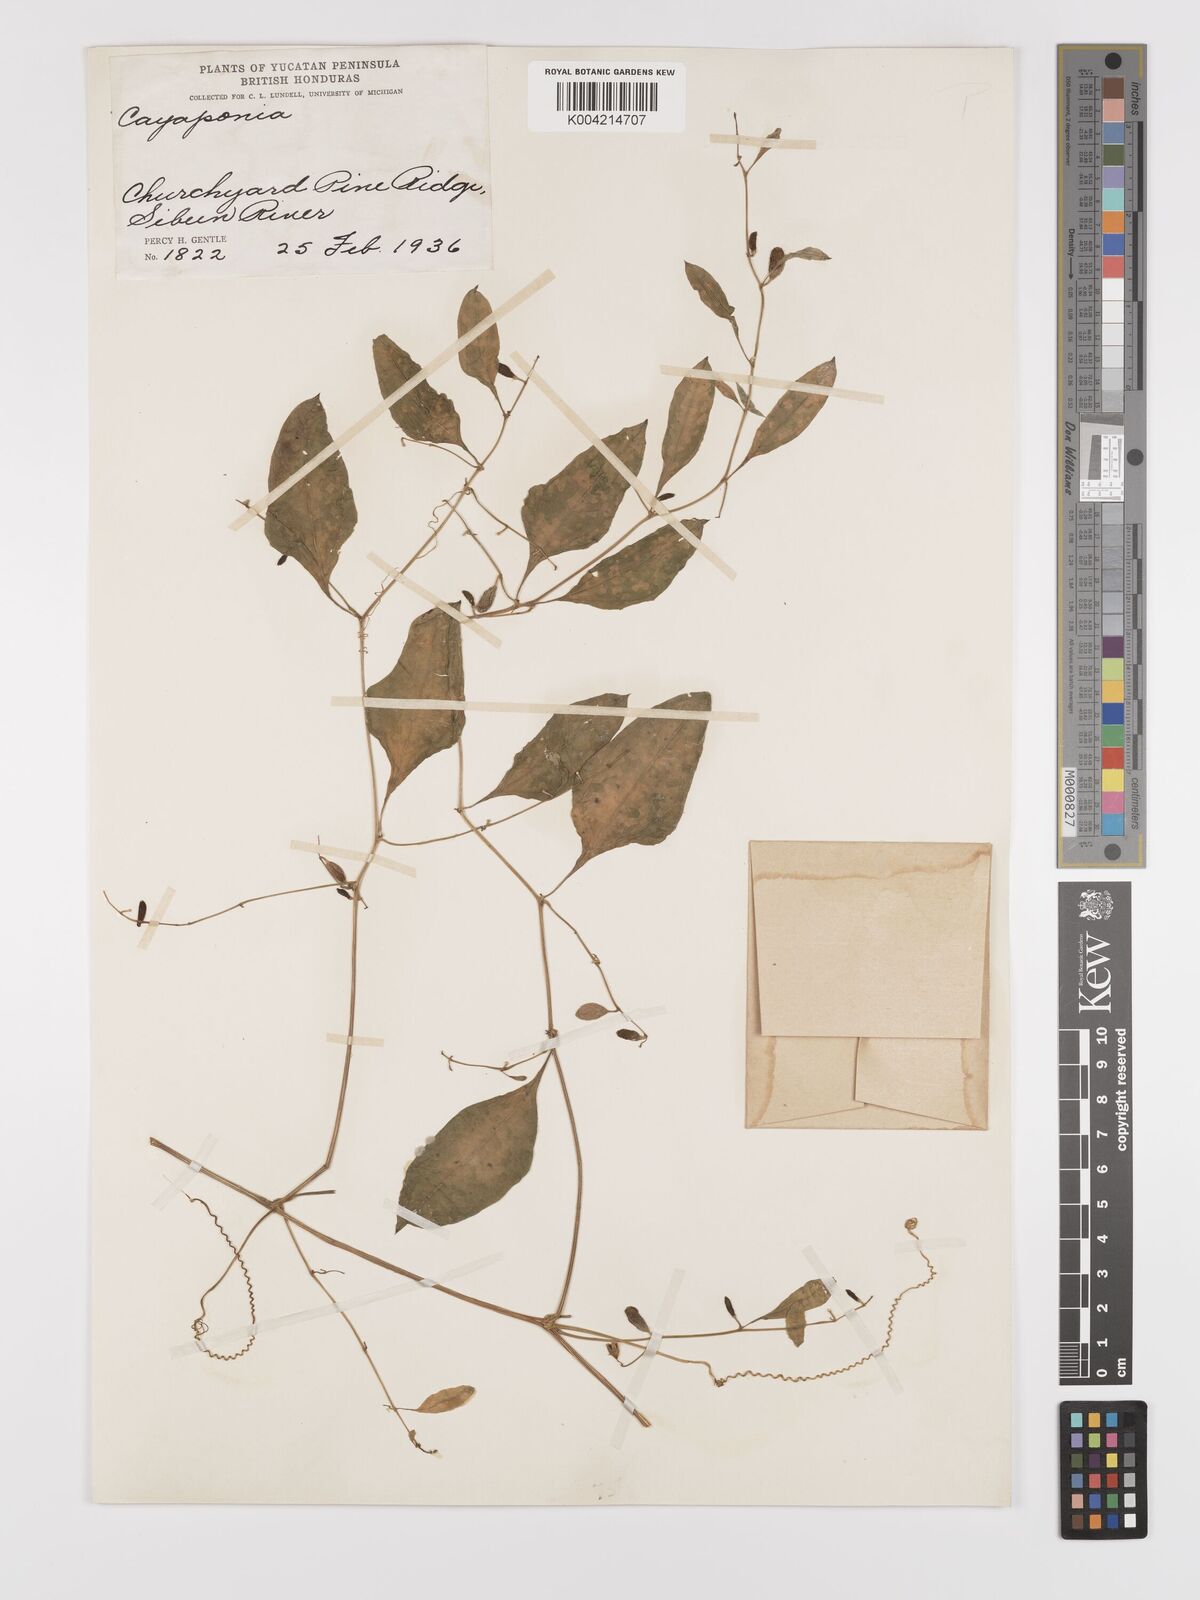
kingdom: Plantae
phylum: Tracheophyta
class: Magnoliopsida
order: Cucurbitales
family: Cucurbitaceae
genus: Cayaponia
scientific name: Cayaponia racemosa
